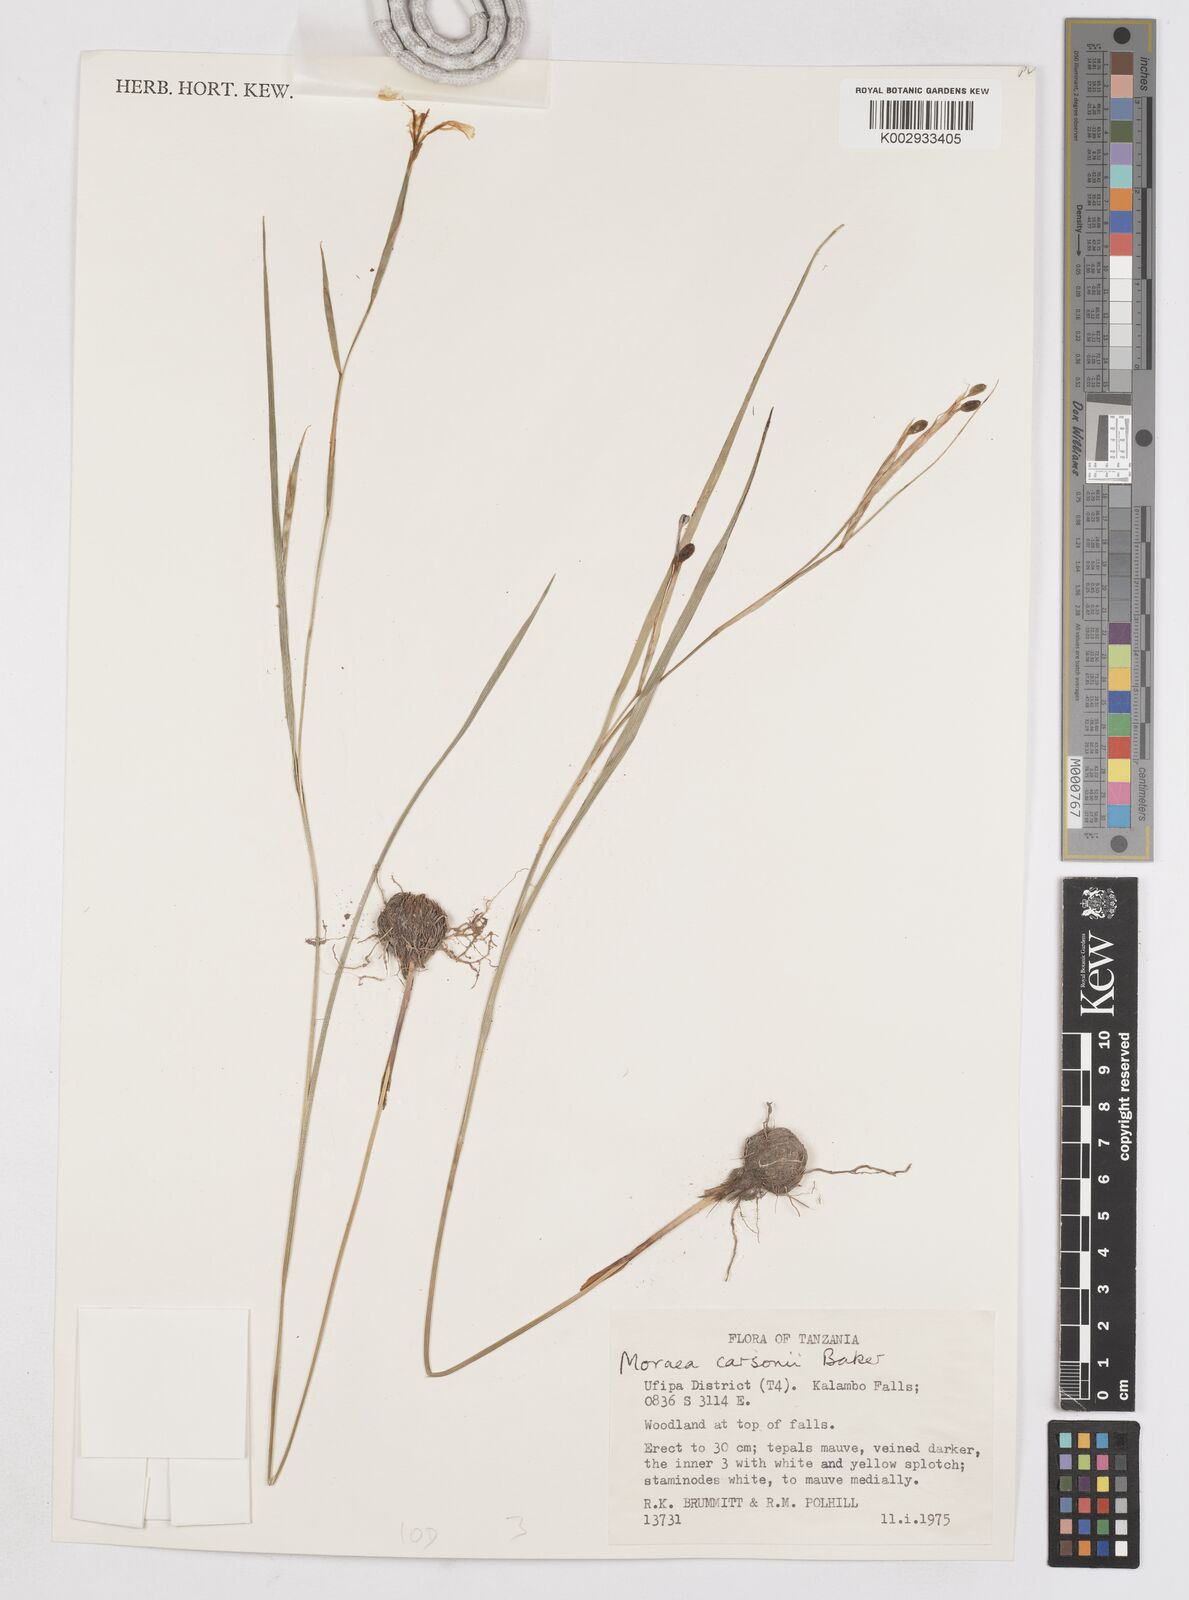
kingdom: Plantae
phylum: Tracheophyta
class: Liliopsida
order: Asparagales
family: Iridaceae
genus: Moraea
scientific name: Moraea carsonii
